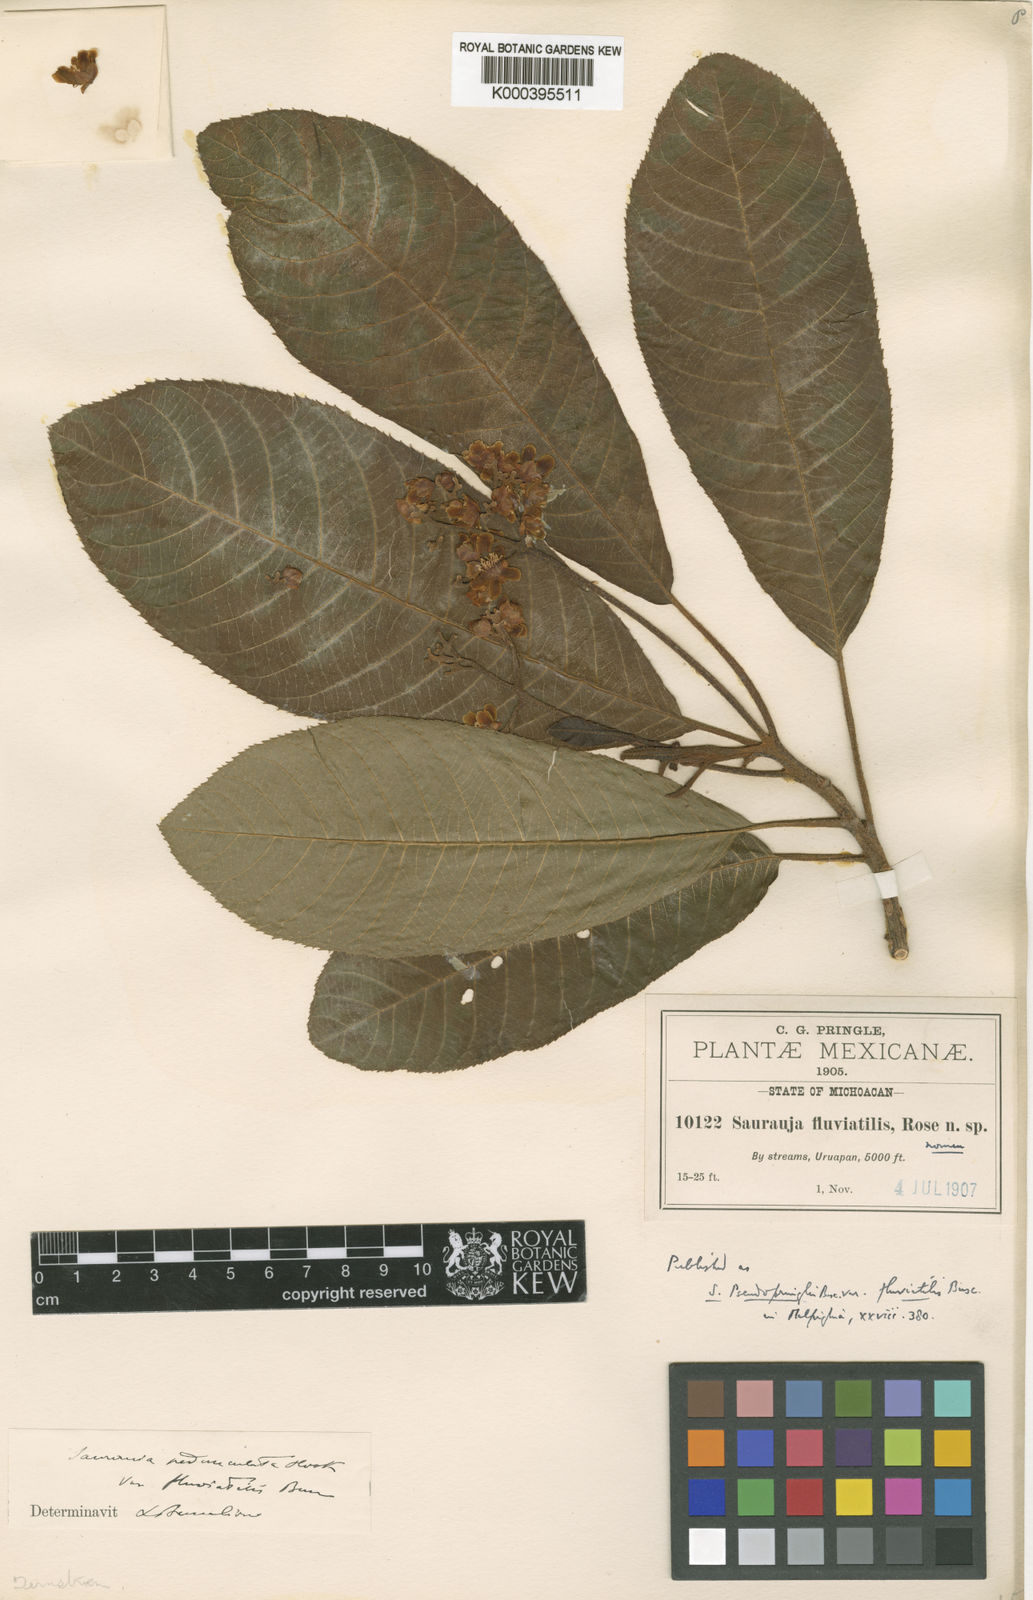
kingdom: Plantae
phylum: Tracheophyta
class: Magnoliopsida
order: Ericales
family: Actinidiaceae
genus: Saurauia
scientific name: Saurauia
